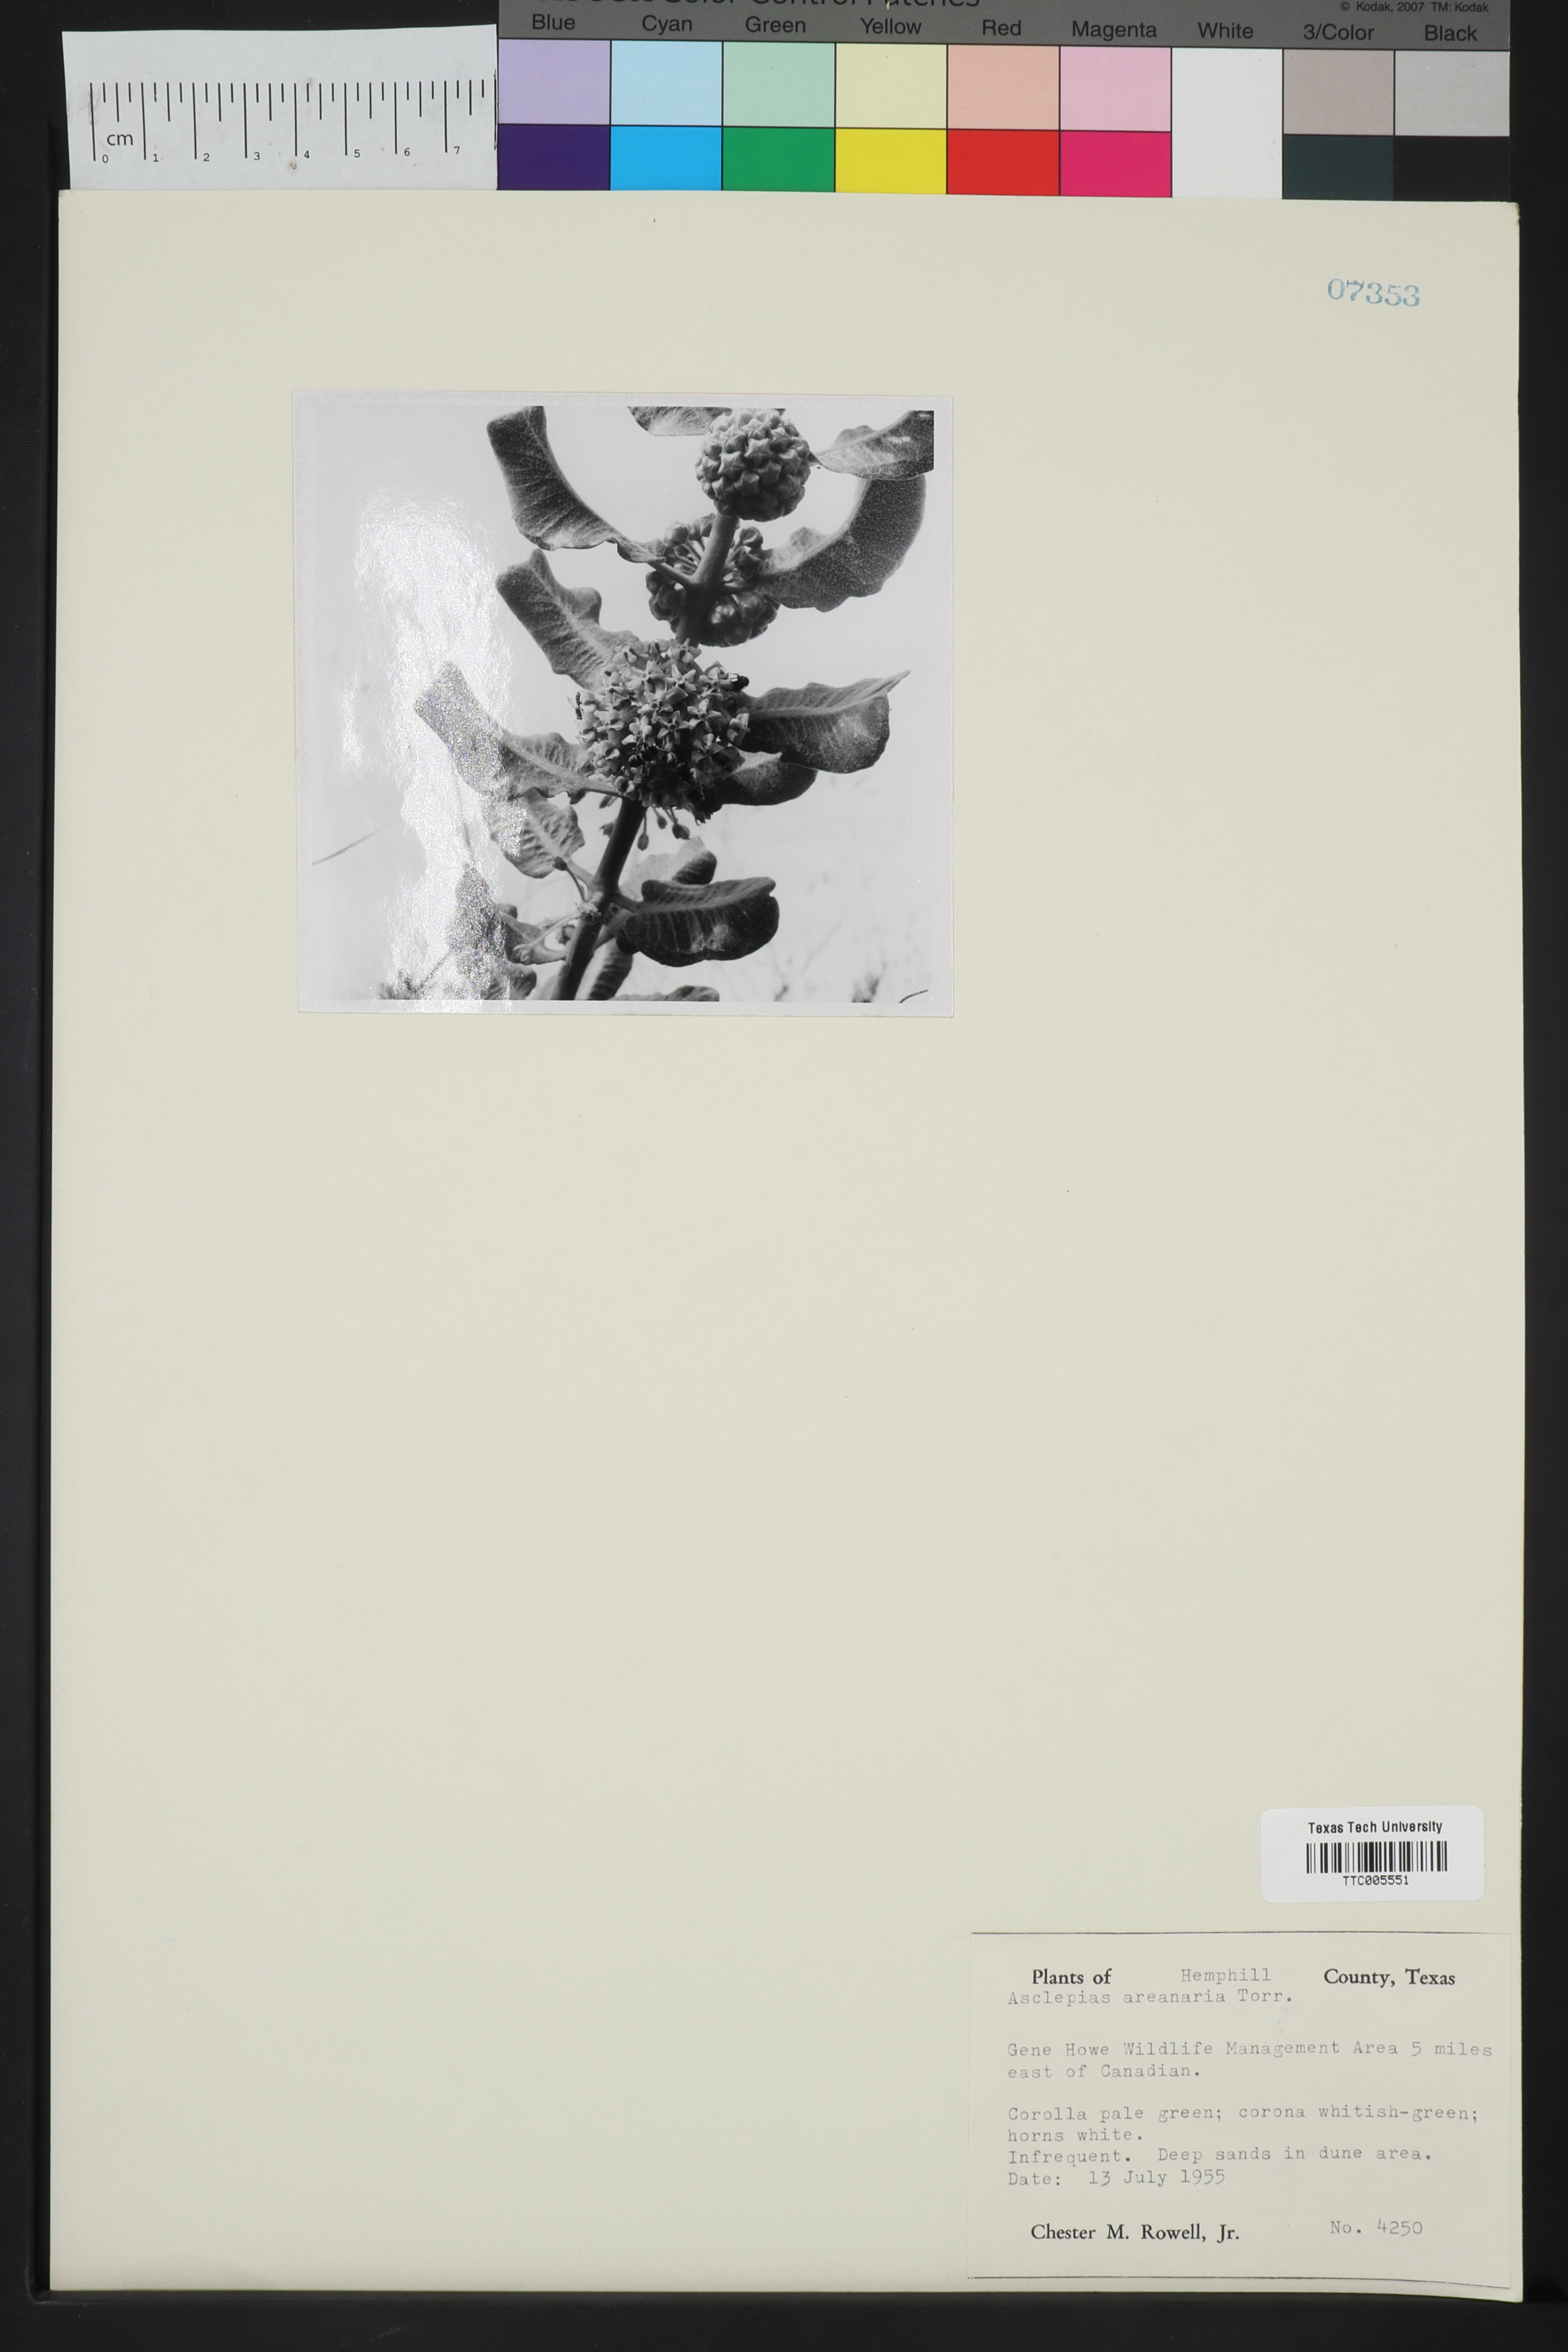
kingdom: Plantae
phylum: Tracheophyta
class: Magnoliopsida
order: Gentianales
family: Apocynaceae
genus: Asclepias
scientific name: Asclepias arenaria
